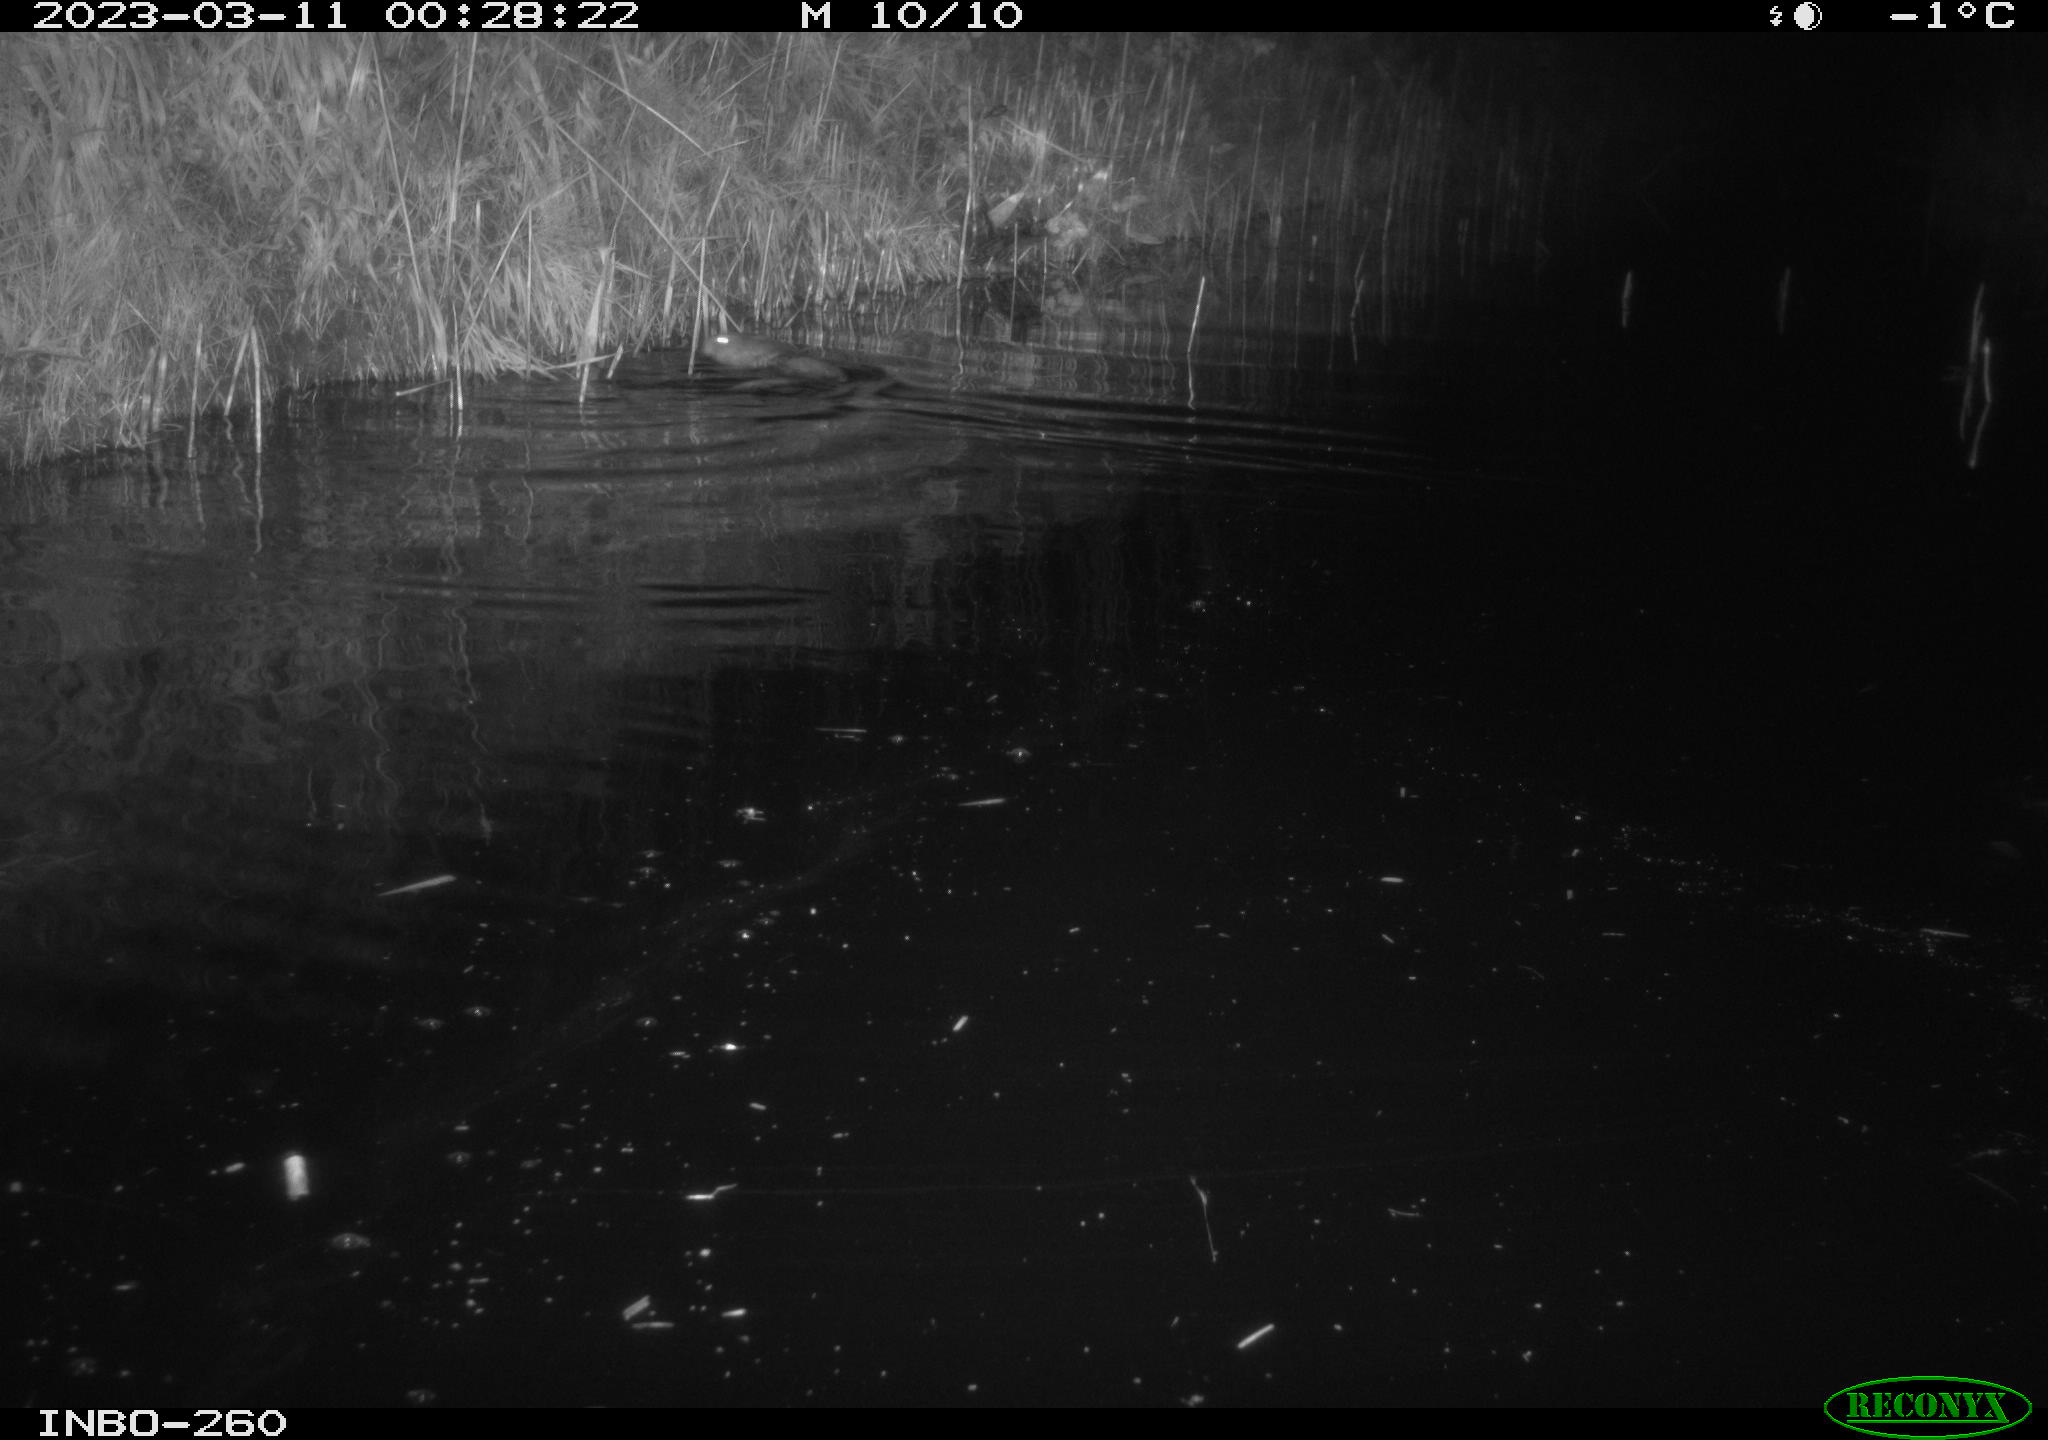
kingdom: Animalia
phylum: Chordata
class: Mammalia
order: Rodentia
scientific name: Rodentia
